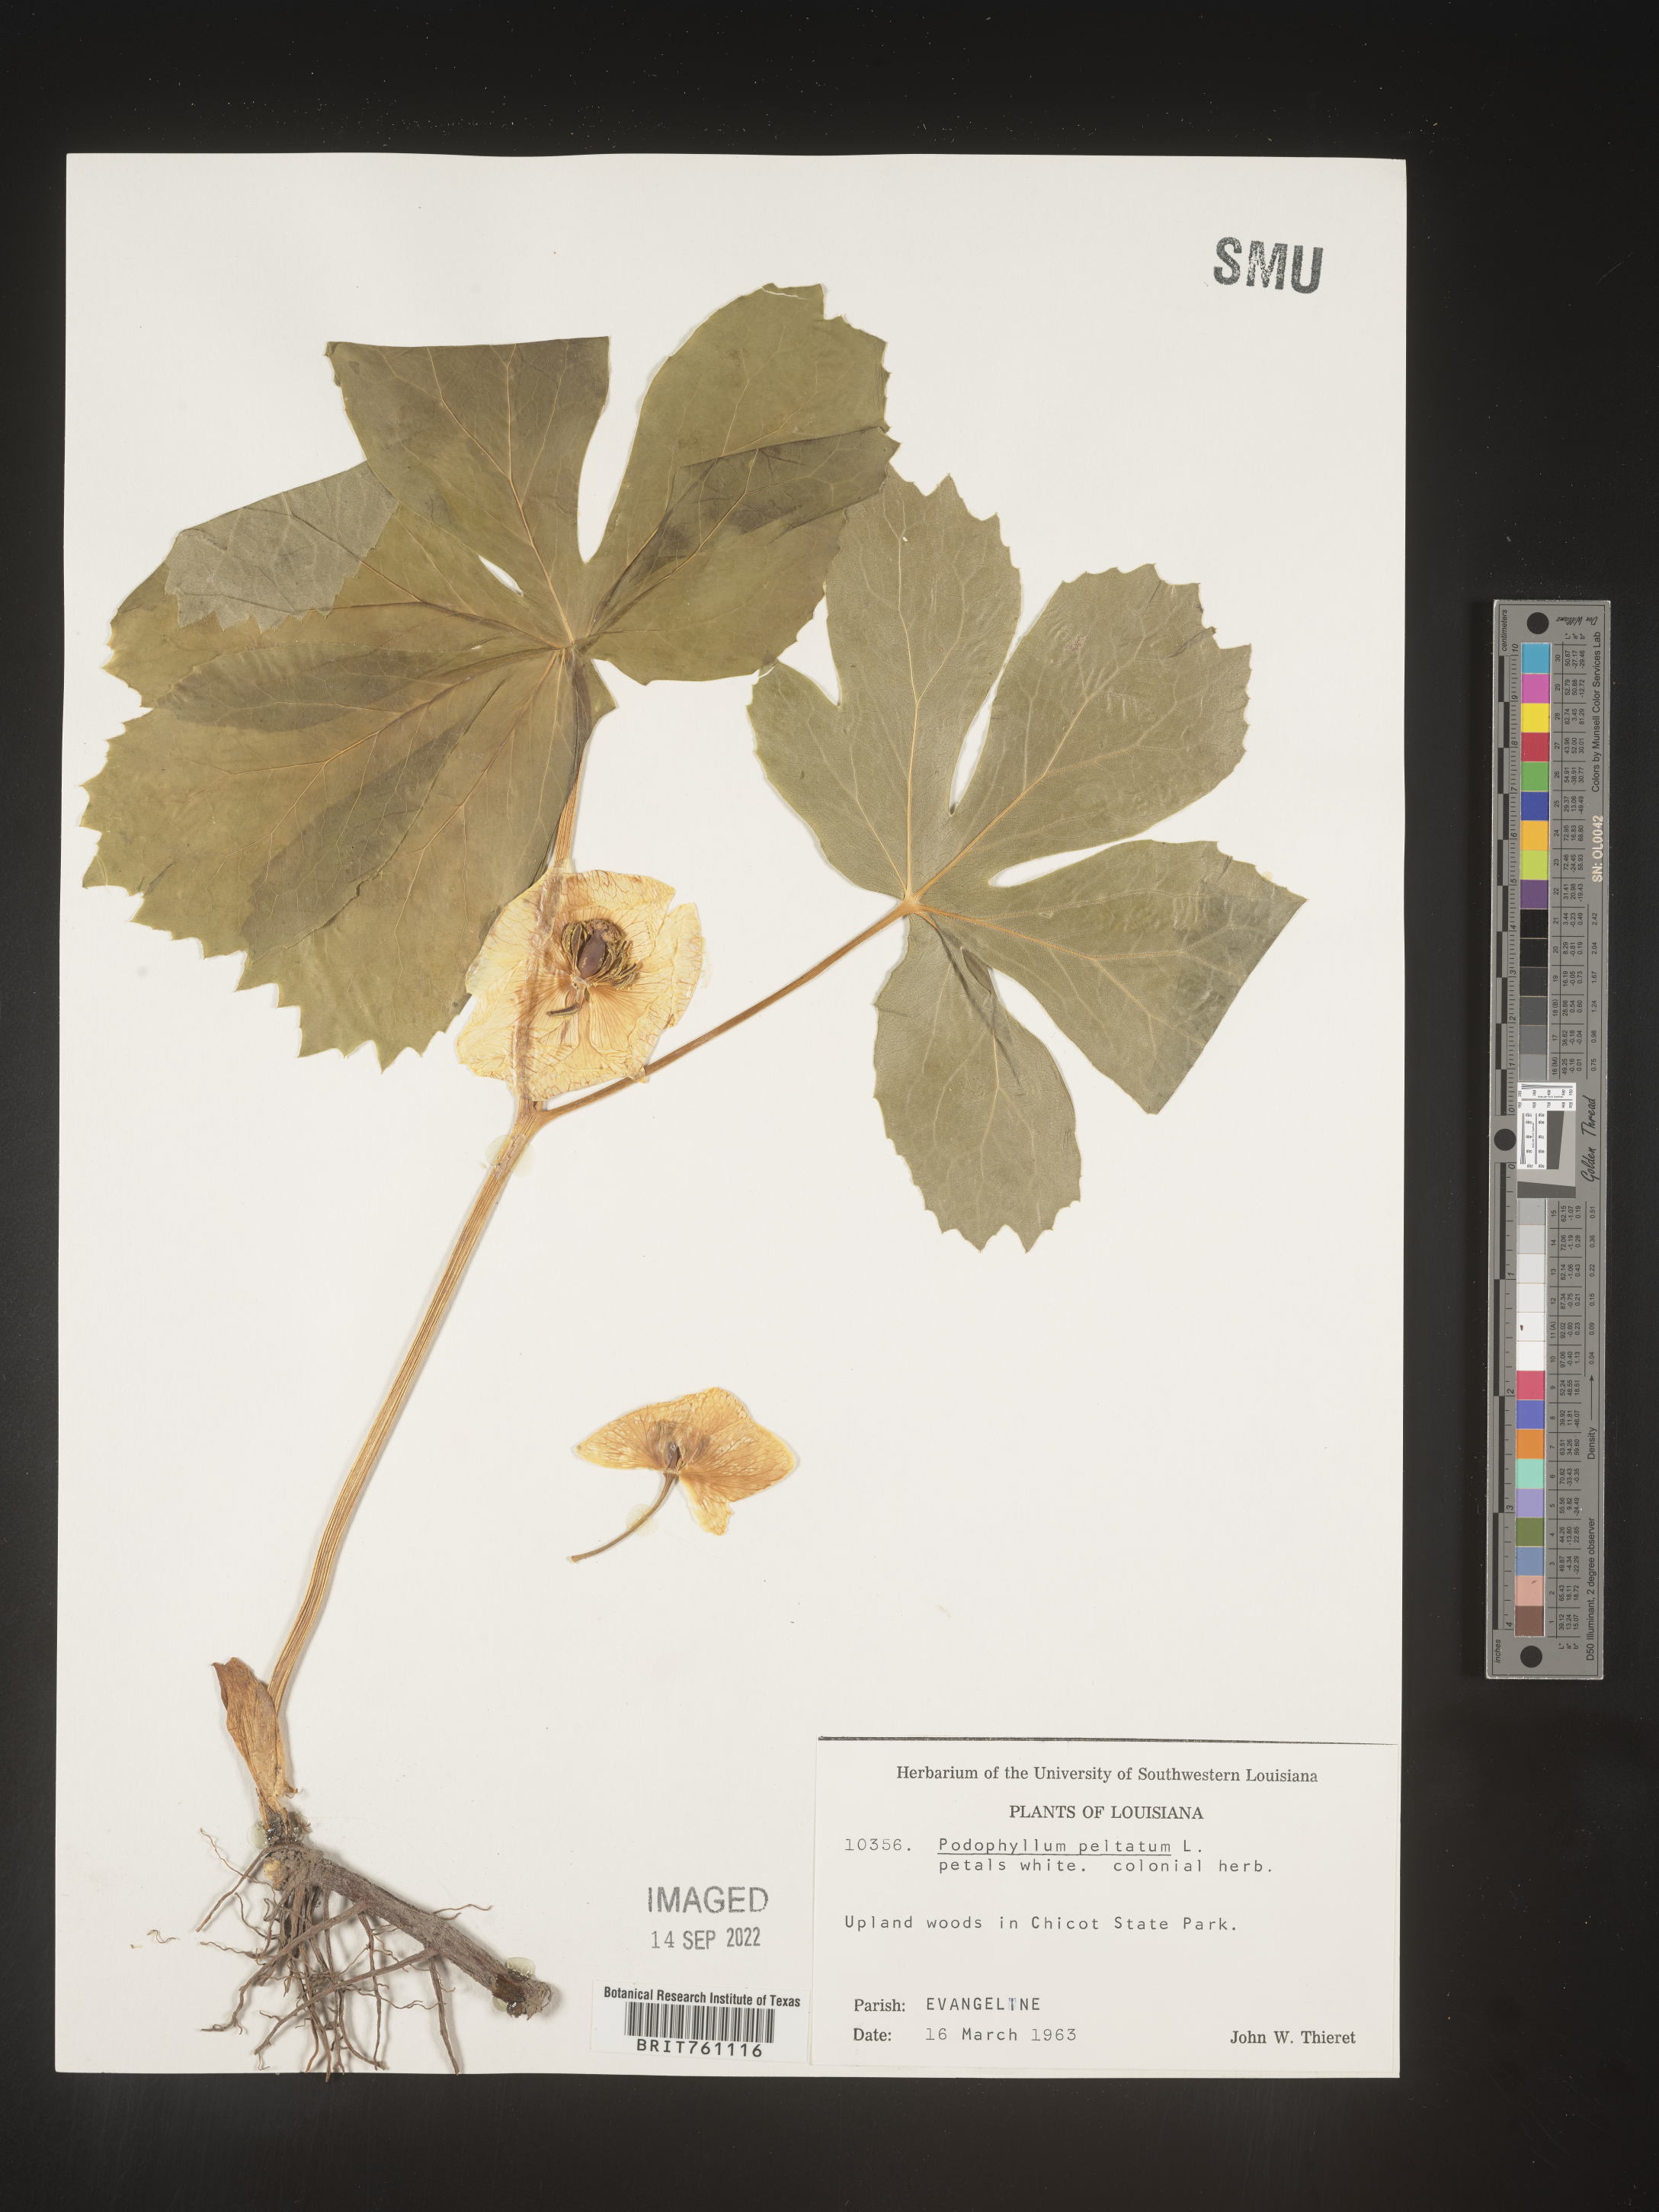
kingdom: Plantae
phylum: Tracheophyta
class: Magnoliopsida
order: Ranunculales
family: Berberidaceae
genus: Podophyllum
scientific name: Podophyllum peltatum
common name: Wild mandrake
